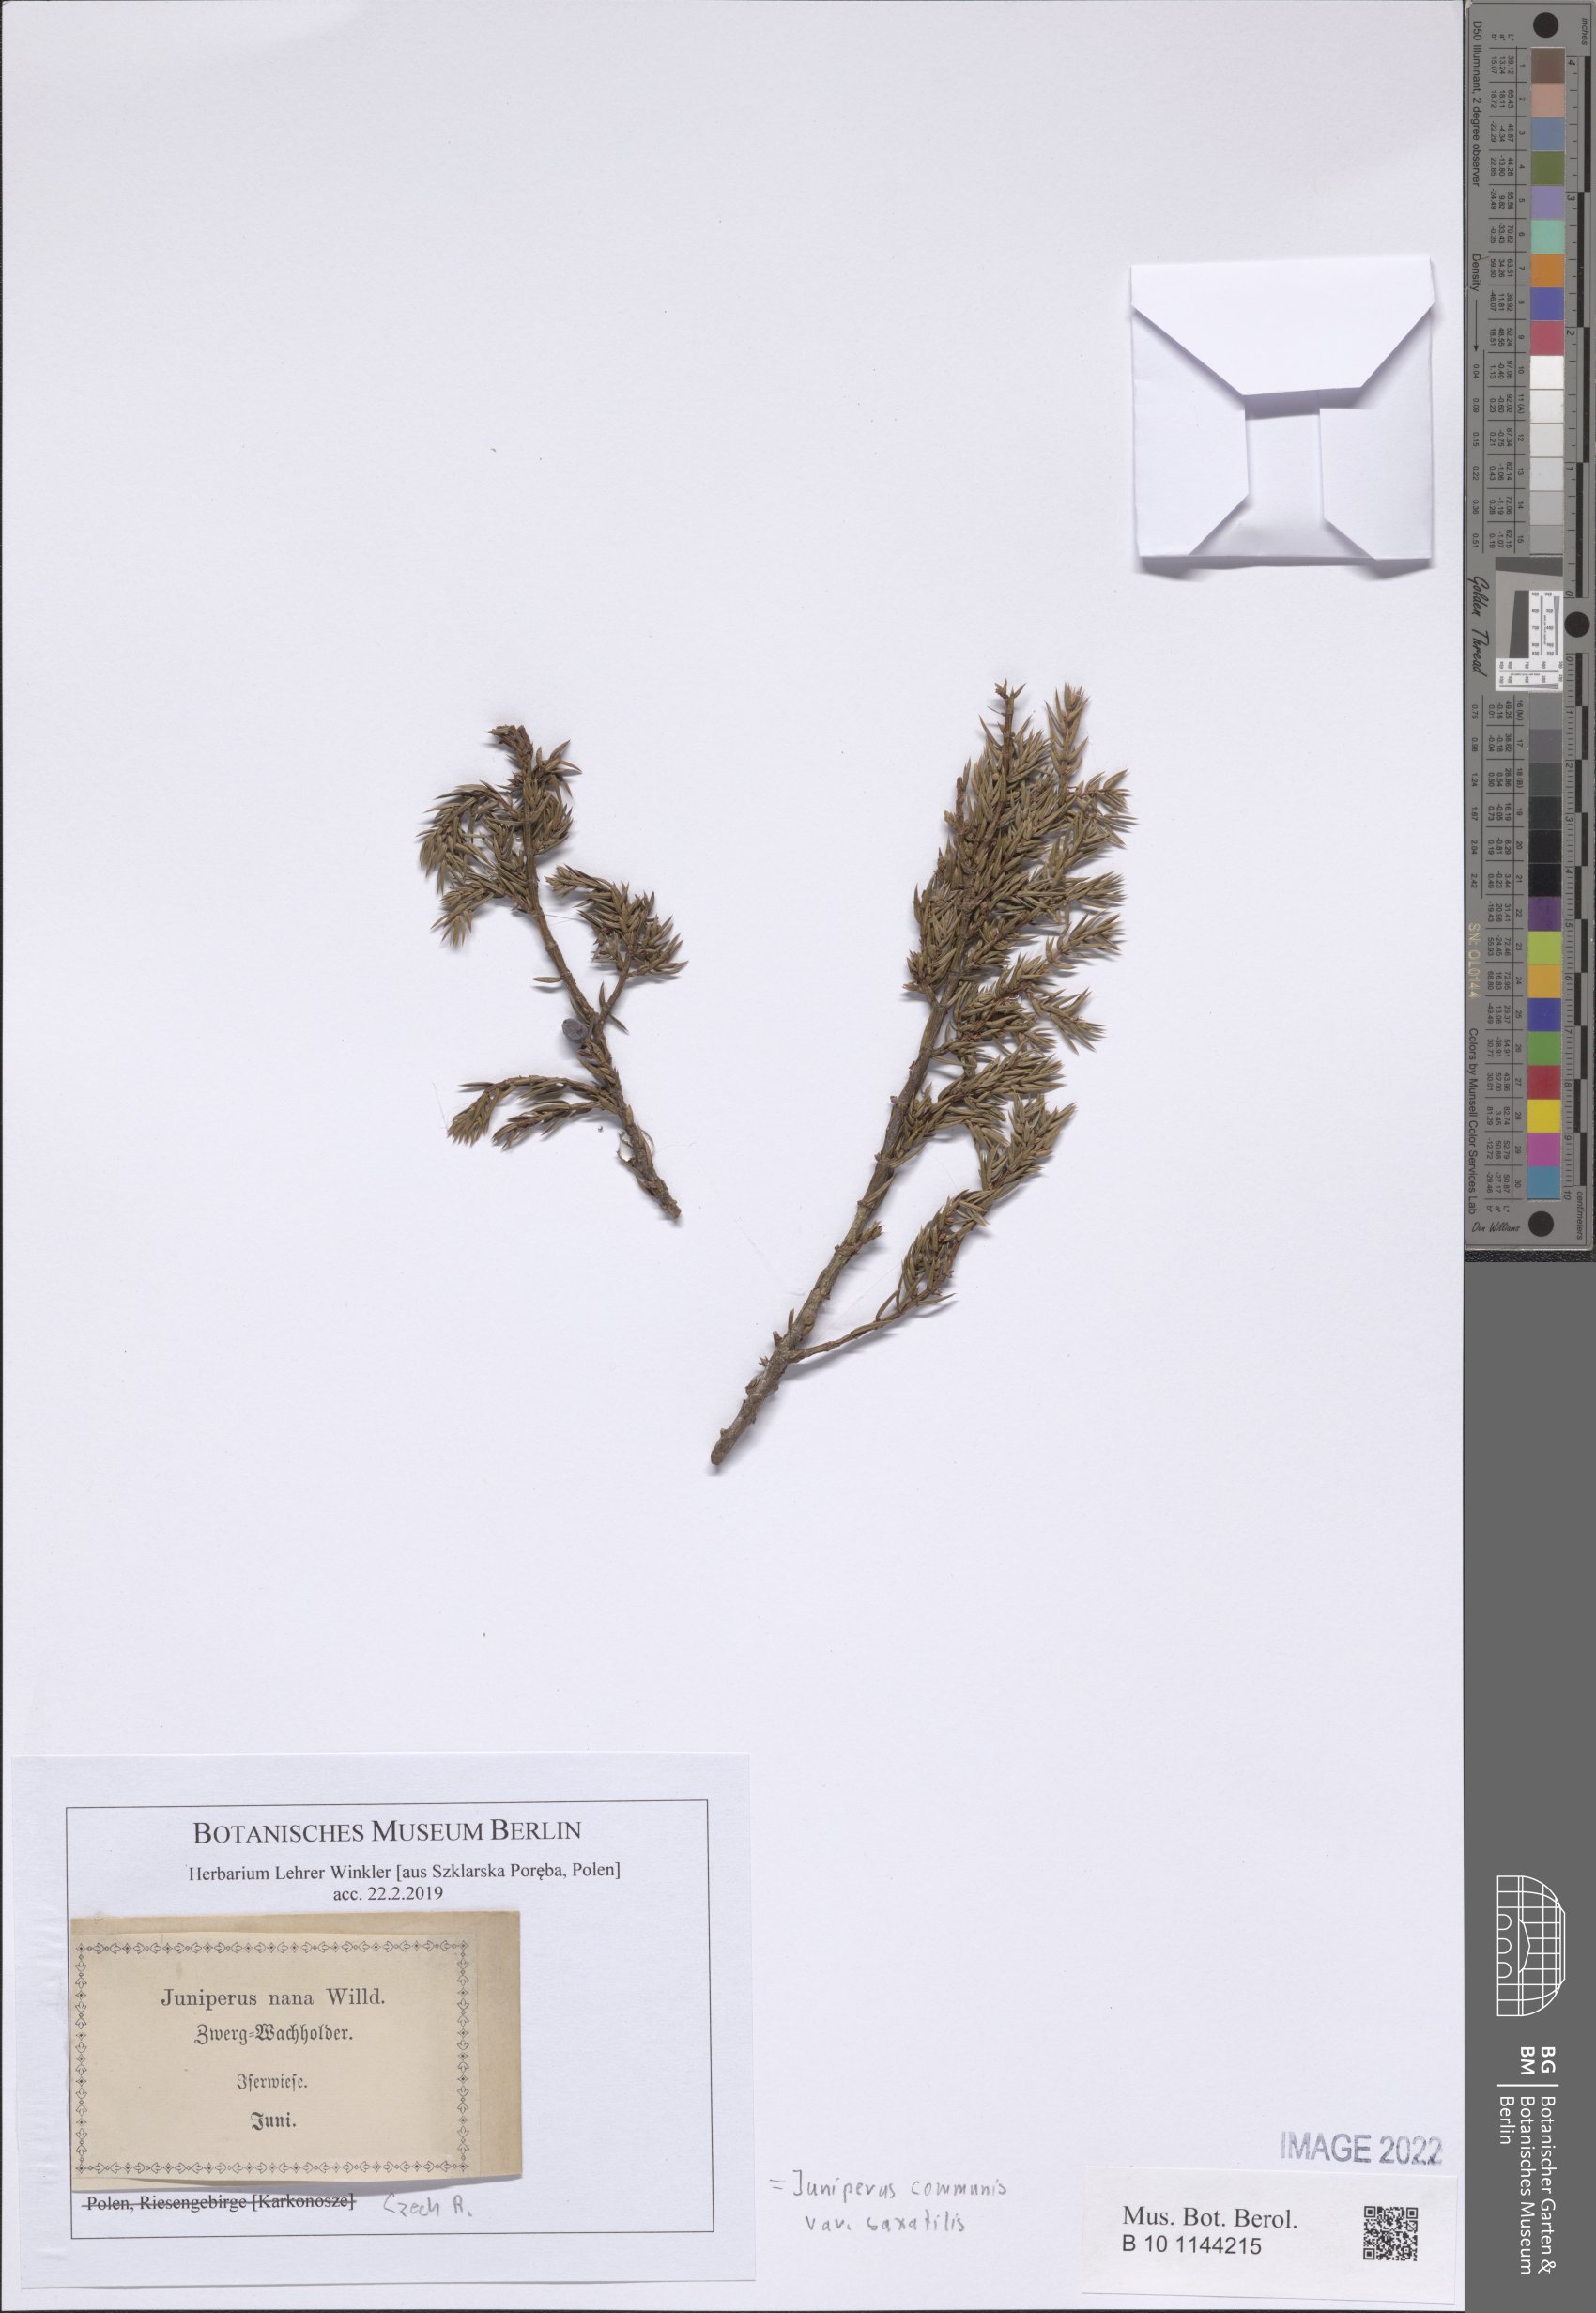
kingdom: Plantae
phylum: Tracheophyta
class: Pinopsida
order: Pinales
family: Cupressaceae
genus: Juniperus
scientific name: Juniperus communis
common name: Common juniper
